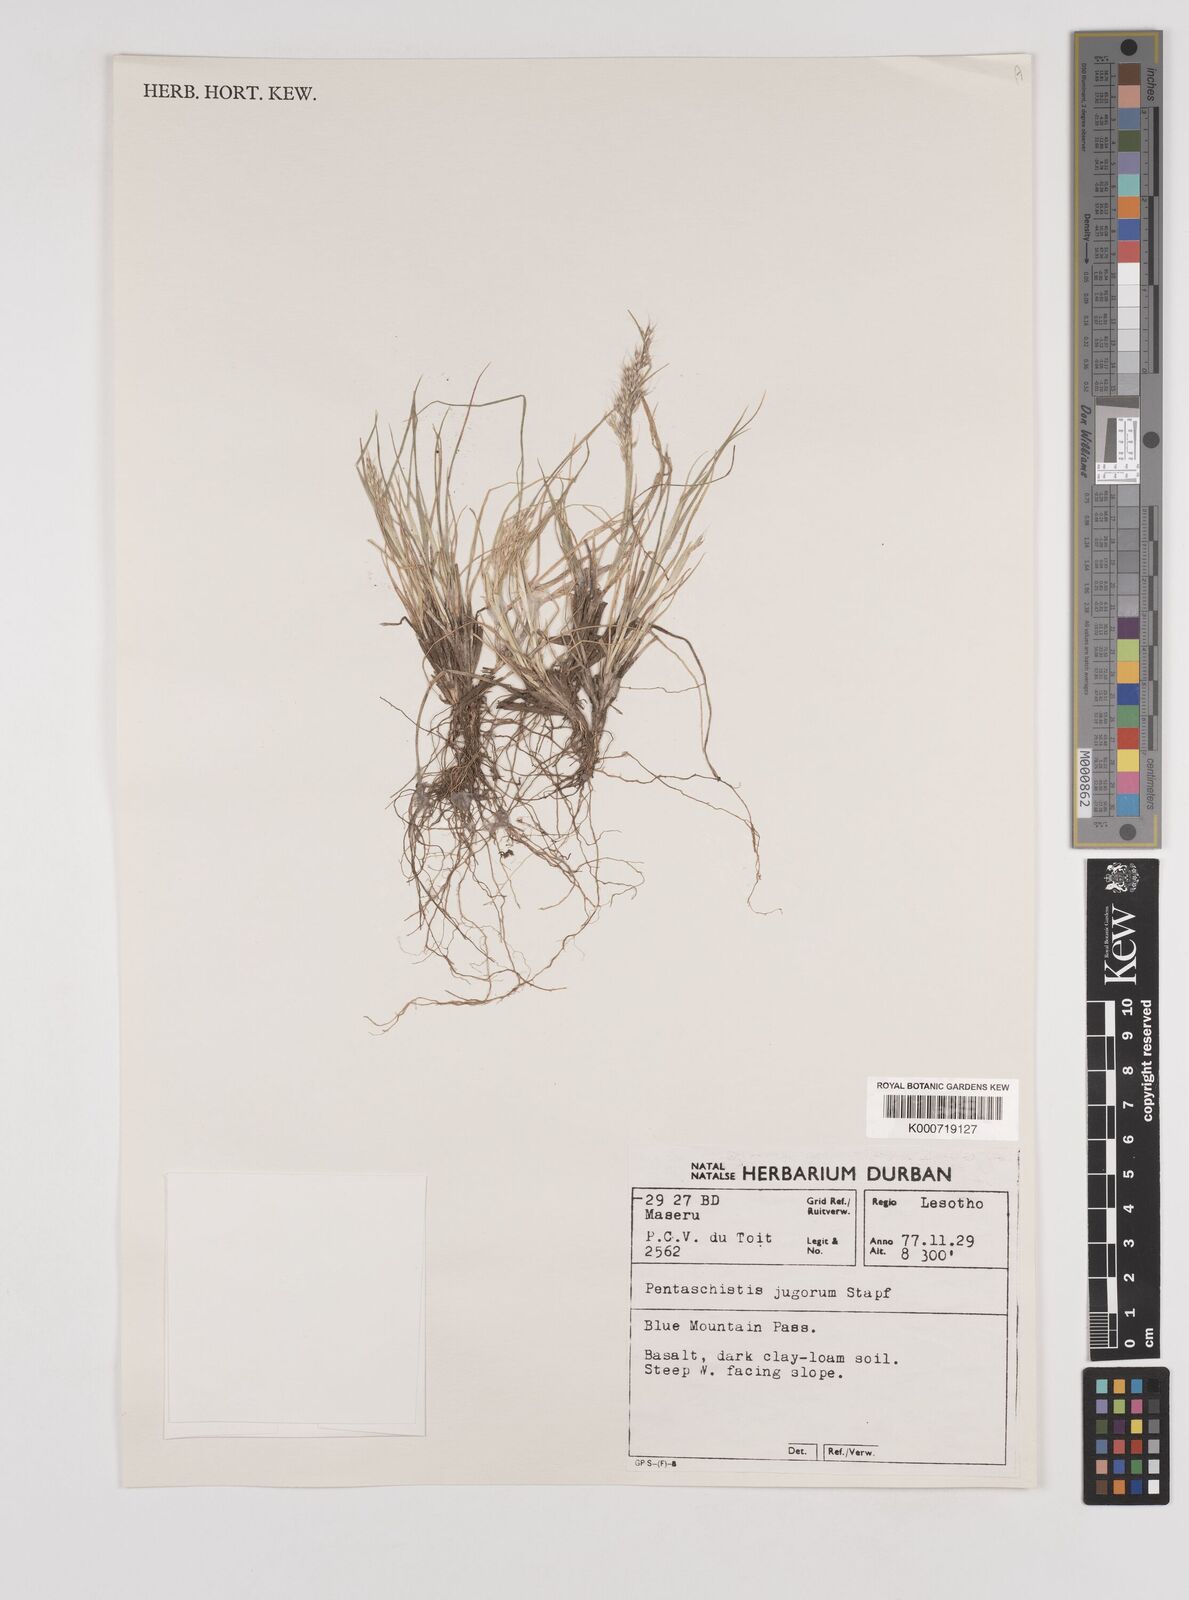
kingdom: Plantae
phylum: Tracheophyta
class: Liliopsida
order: Poales
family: Poaceae
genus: Pentameris
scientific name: Pentameris airoides
